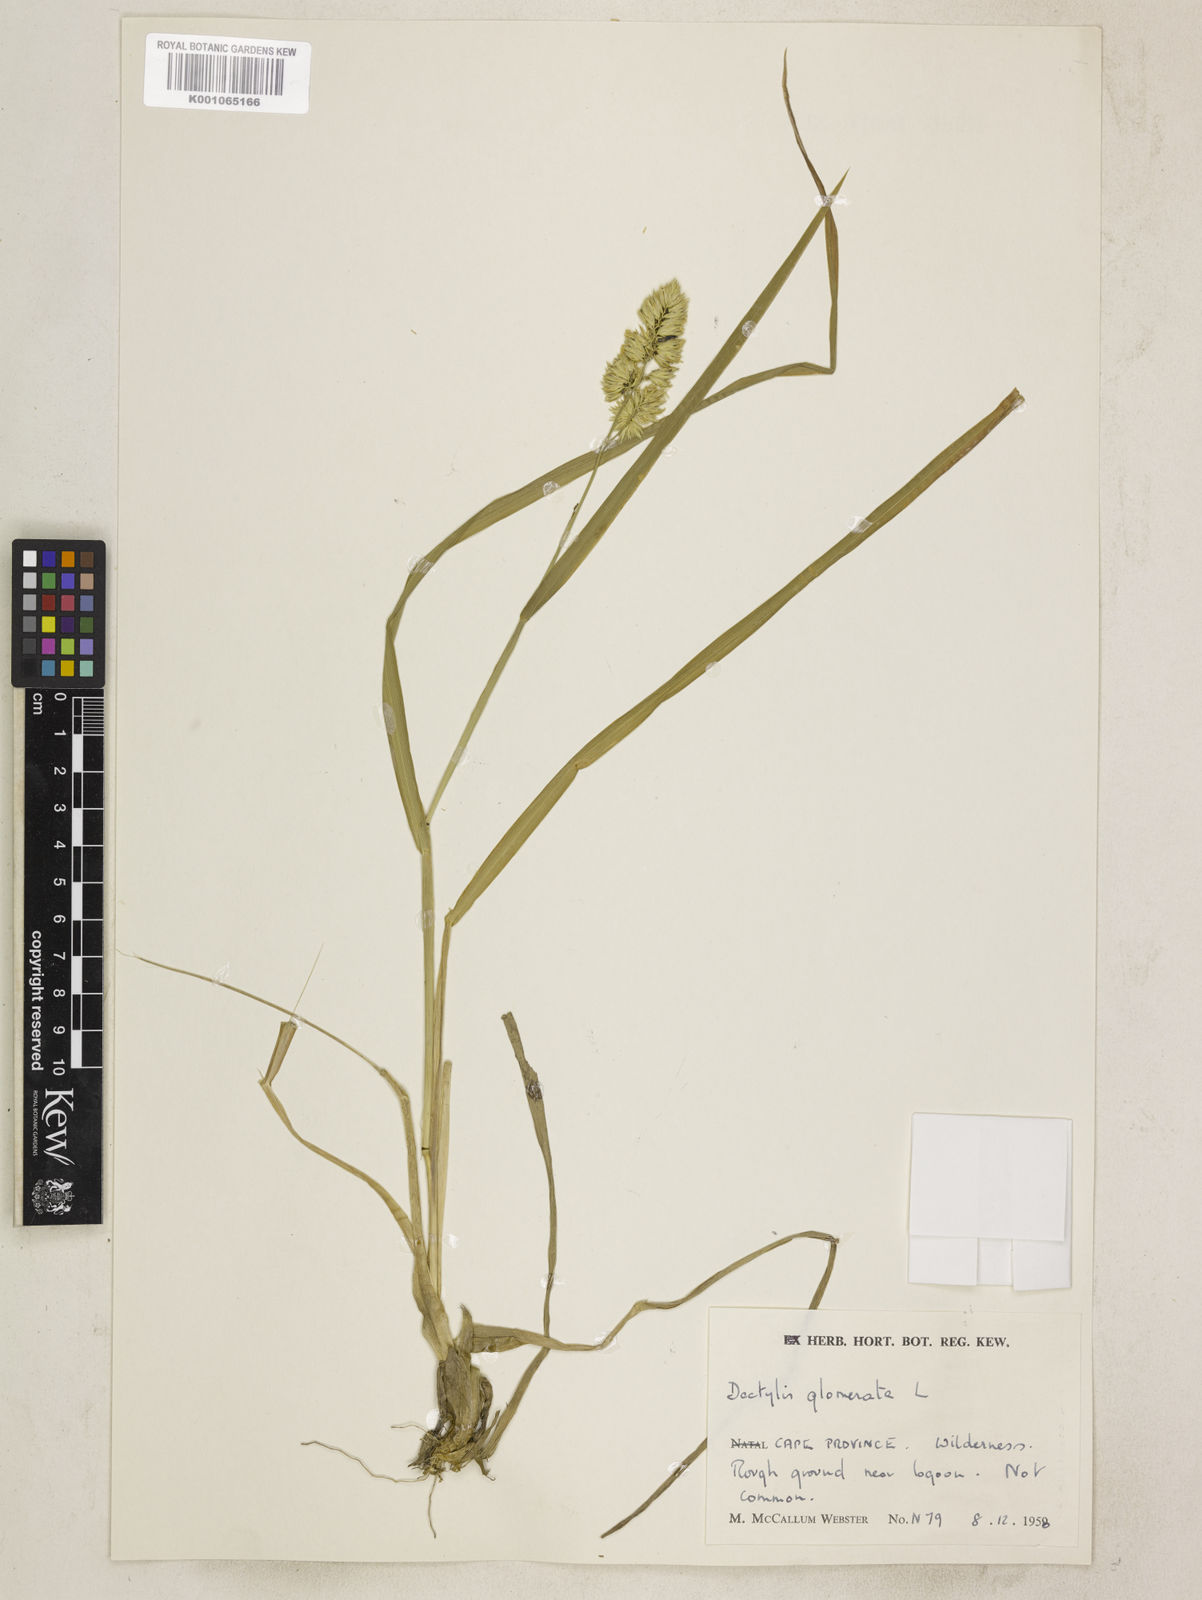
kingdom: Plantae
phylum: Tracheophyta
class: Liliopsida
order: Poales
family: Poaceae
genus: Dactylis
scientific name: Dactylis glomerata
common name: Orchardgrass
